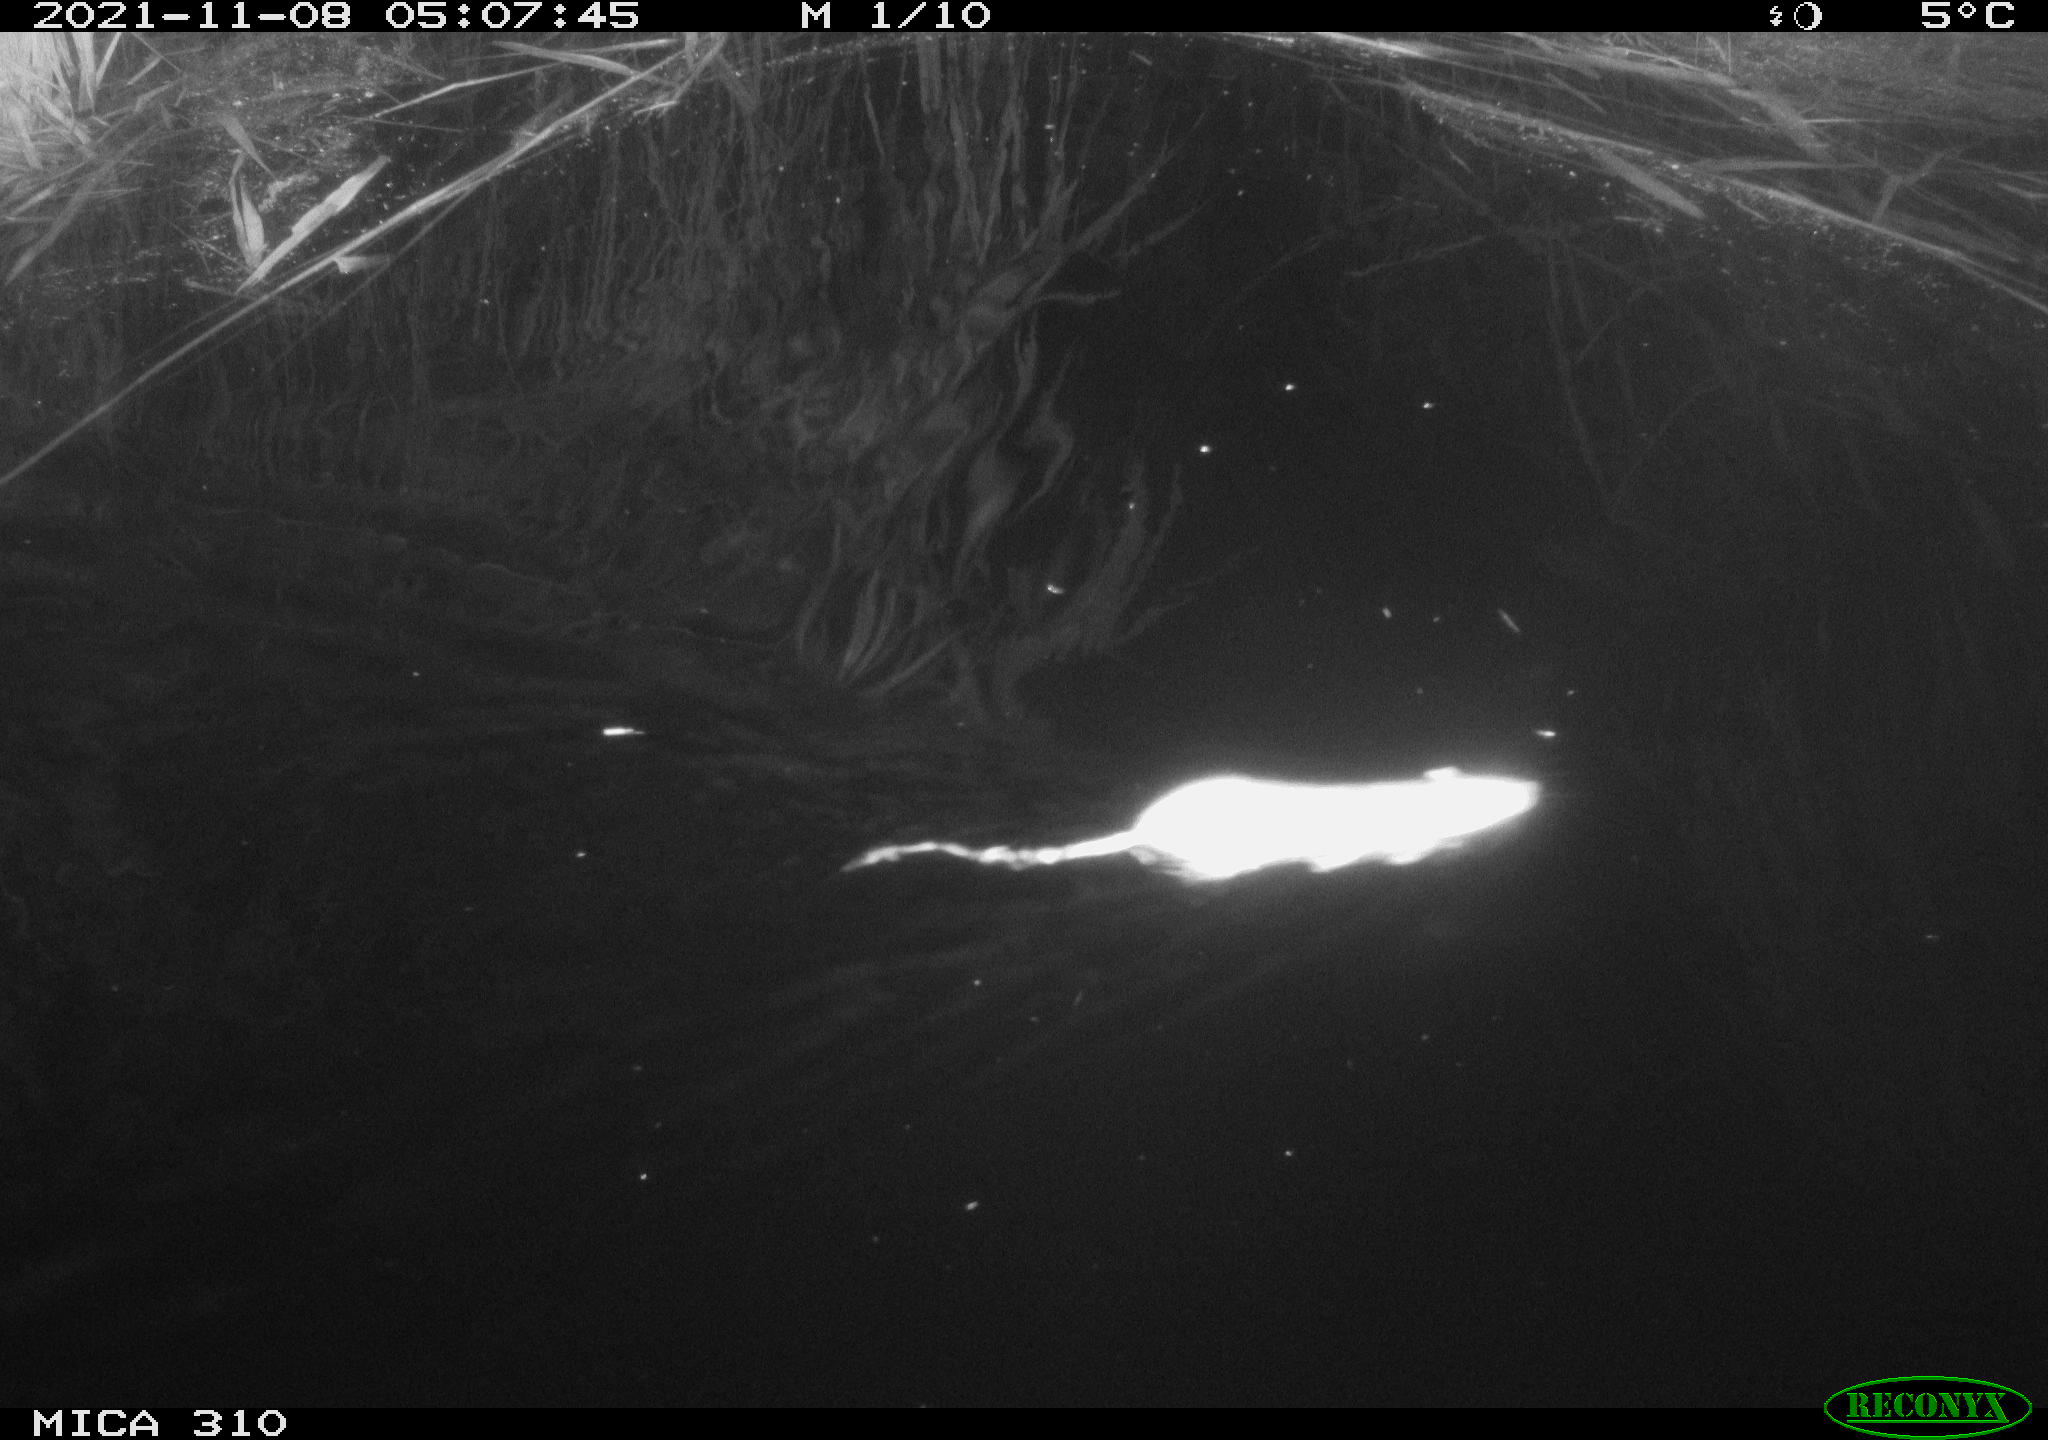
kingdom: Animalia
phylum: Chordata
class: Mammalia
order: Rodentia
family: Muridae
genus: Rattus
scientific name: Rattus norvegicus
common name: Brown rat
